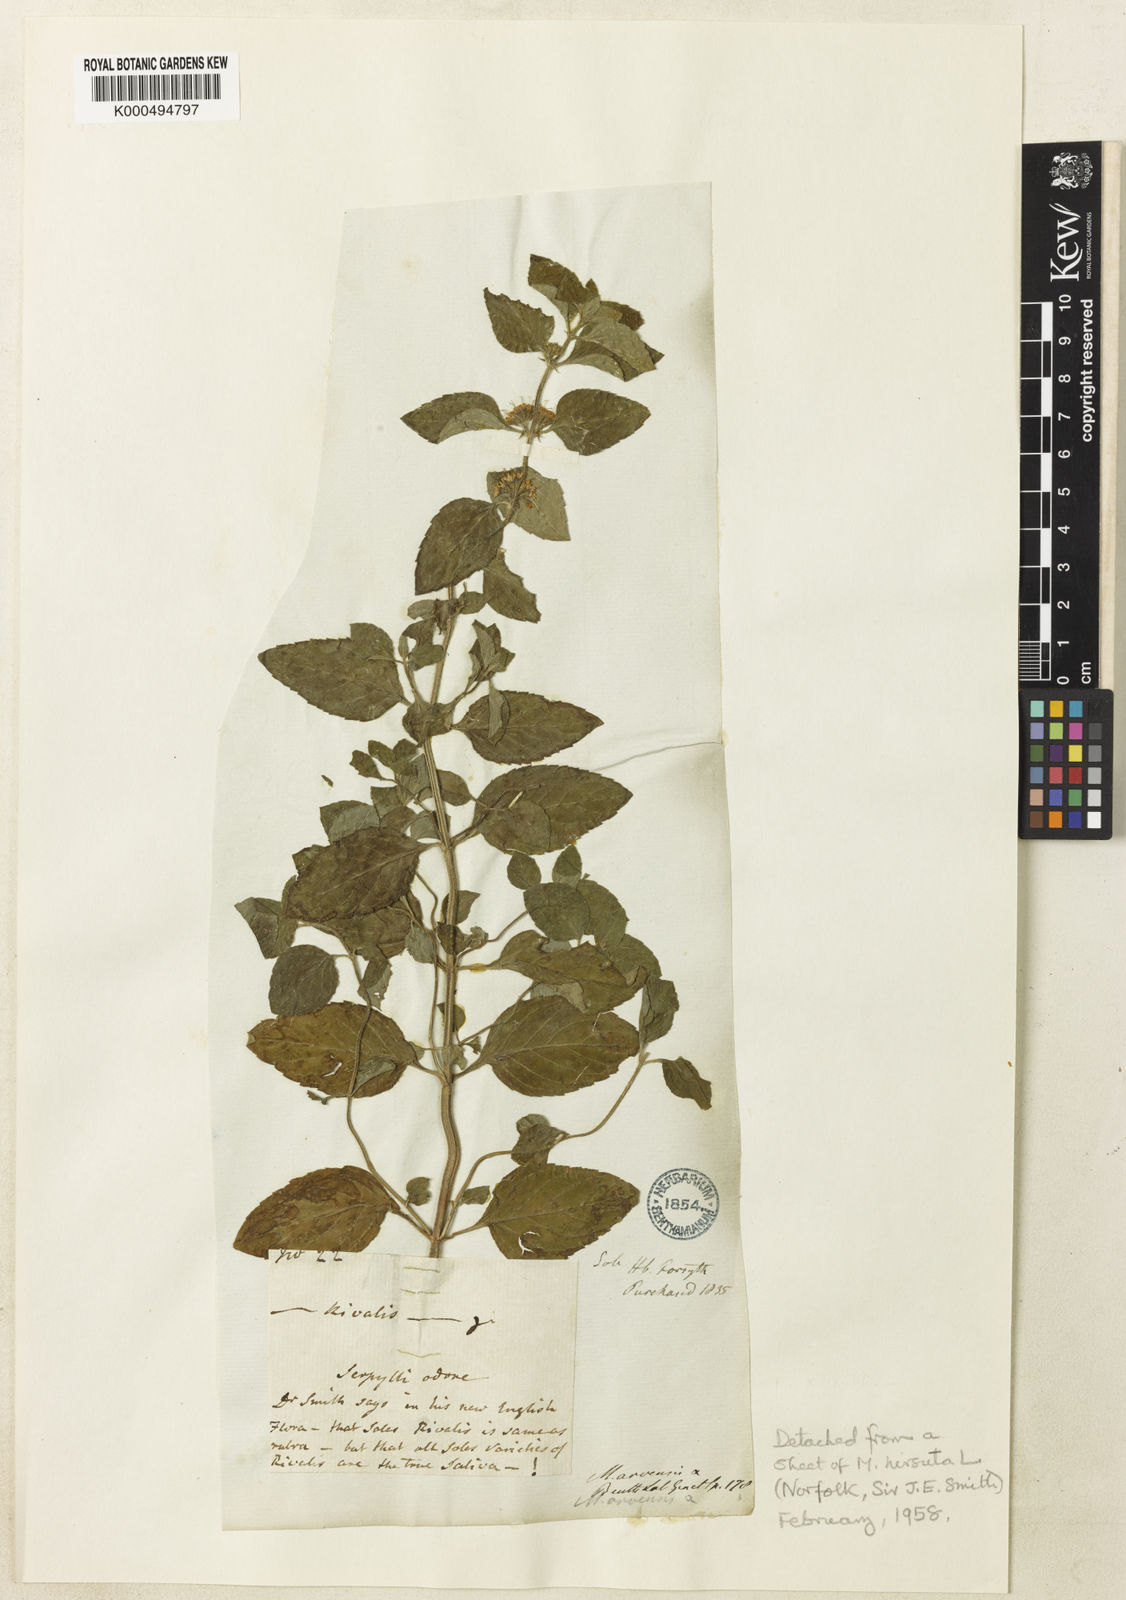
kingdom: Plantae
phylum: Tracheophyta
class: Magnoliopsida
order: Lamiales
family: Lamiaceae
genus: Mentha
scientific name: Mentha verticillata
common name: Mint
